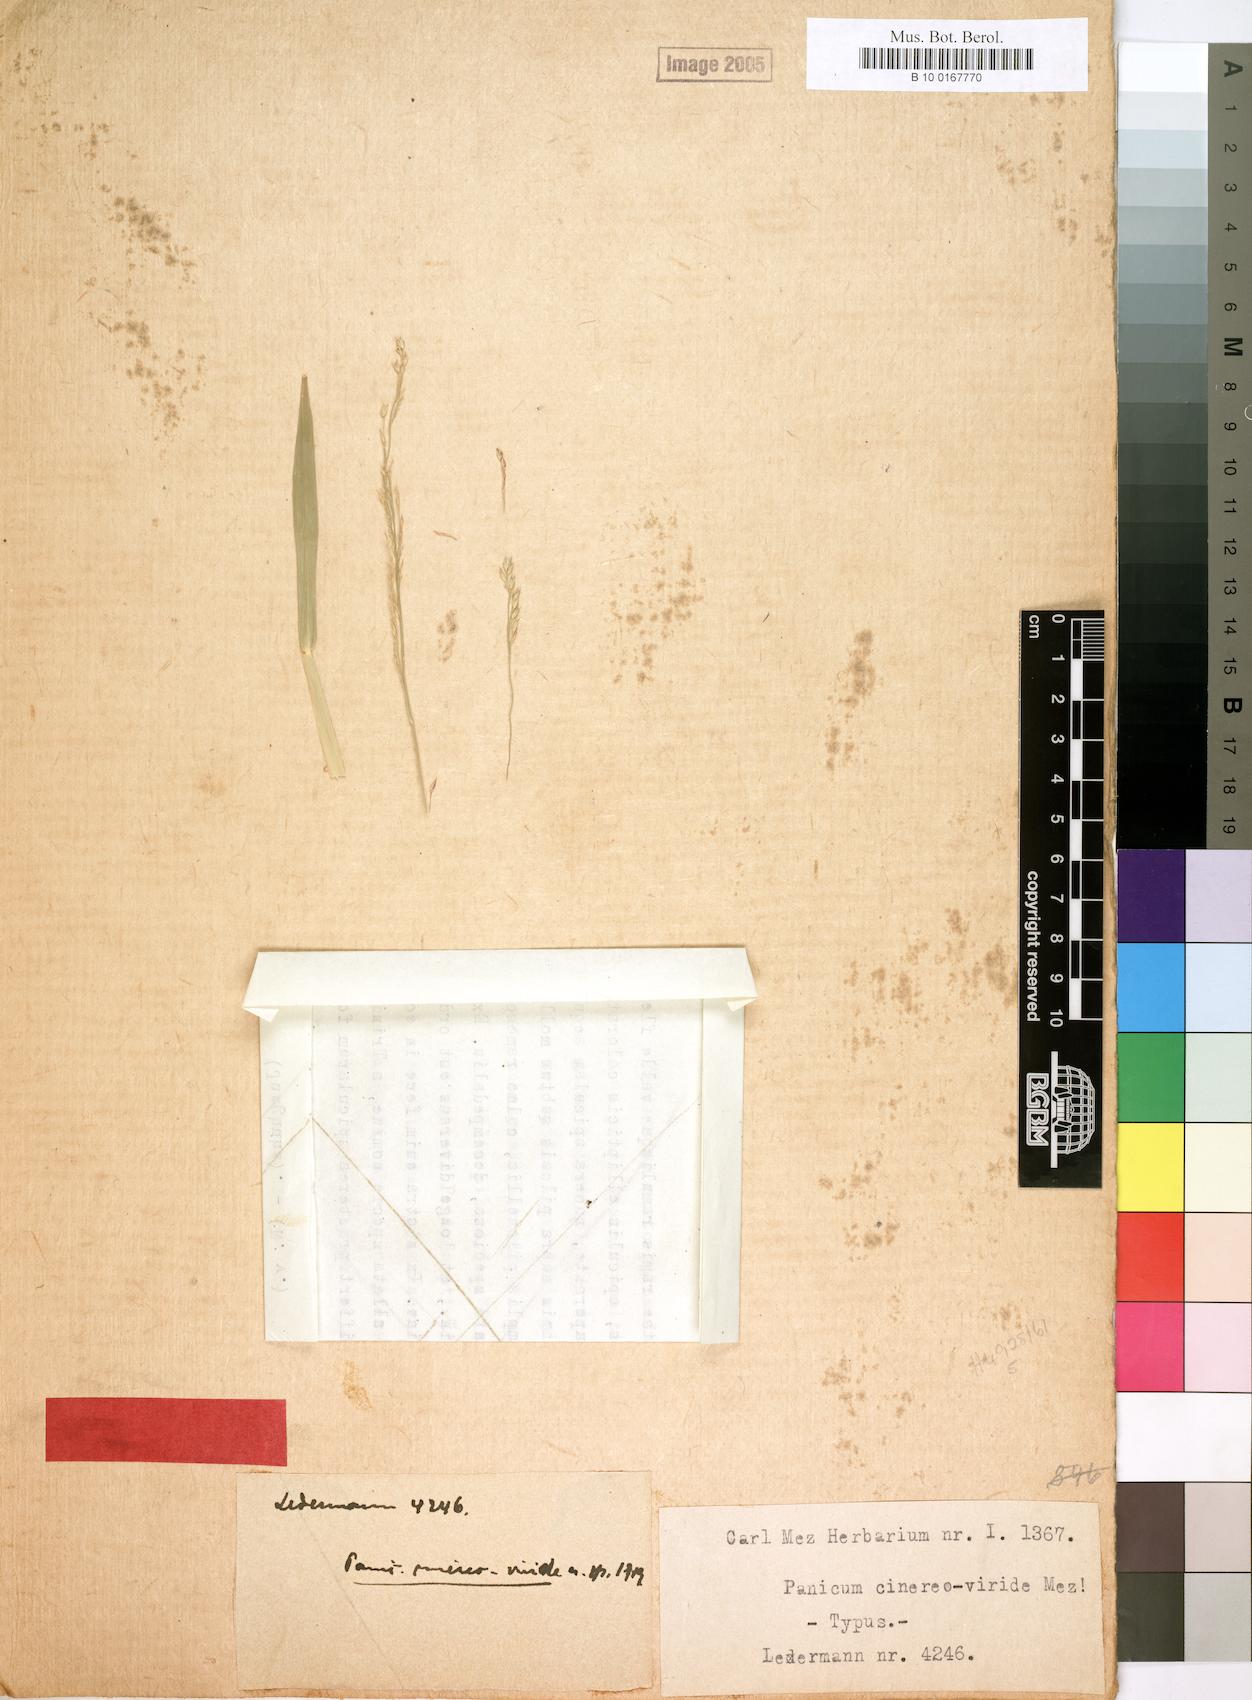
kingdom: Plantae
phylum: Tracheophyta
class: Liliopsida
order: Poales
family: Poaceae
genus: Panicum
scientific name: Panicum anabaptistum
